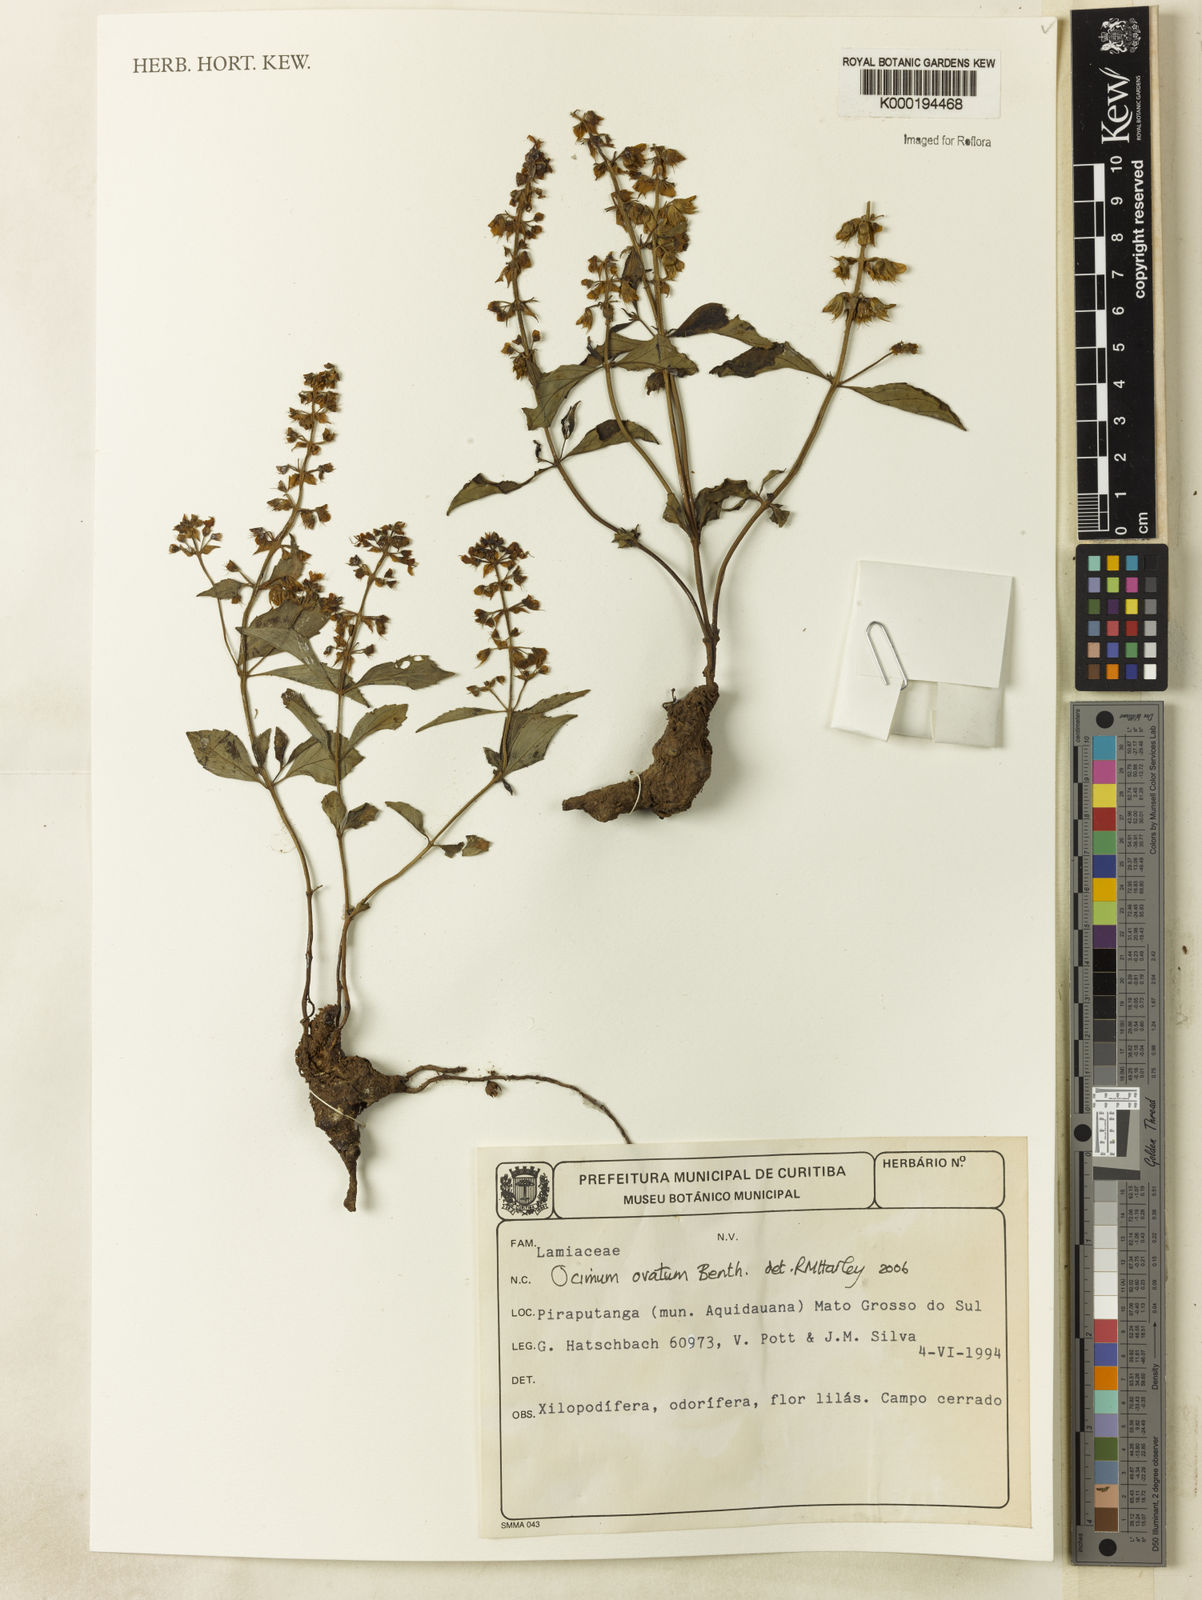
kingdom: Plantae
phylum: Tracheophyta
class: Magnoliopsida
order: Lamiales
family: Lamiaceae
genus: Ocimum
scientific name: Ocimum ovatum
